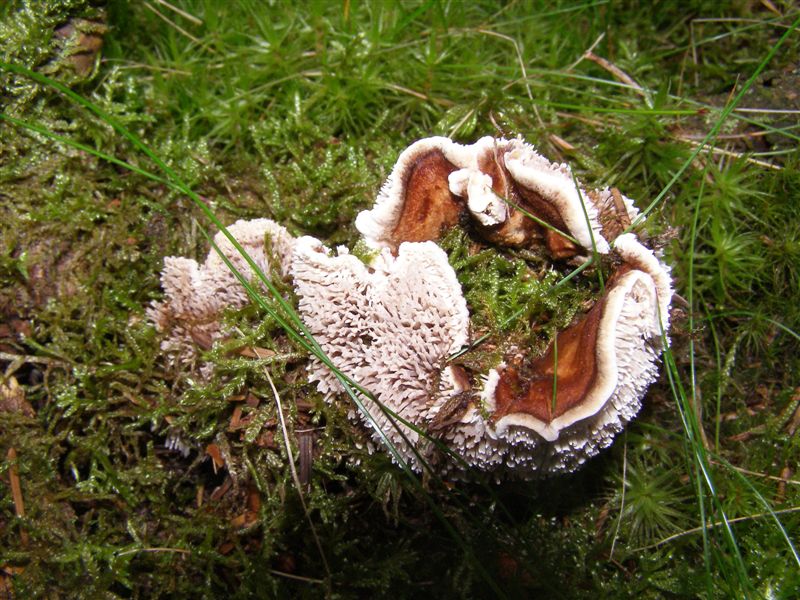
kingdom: Fungi
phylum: Basidiomycota
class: Agaricomycetes
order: Thelephorales
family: Thelephoraceae
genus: Phellodon
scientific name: Phellodon fuligineoalbus
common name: pjusket duftpigsvamp
